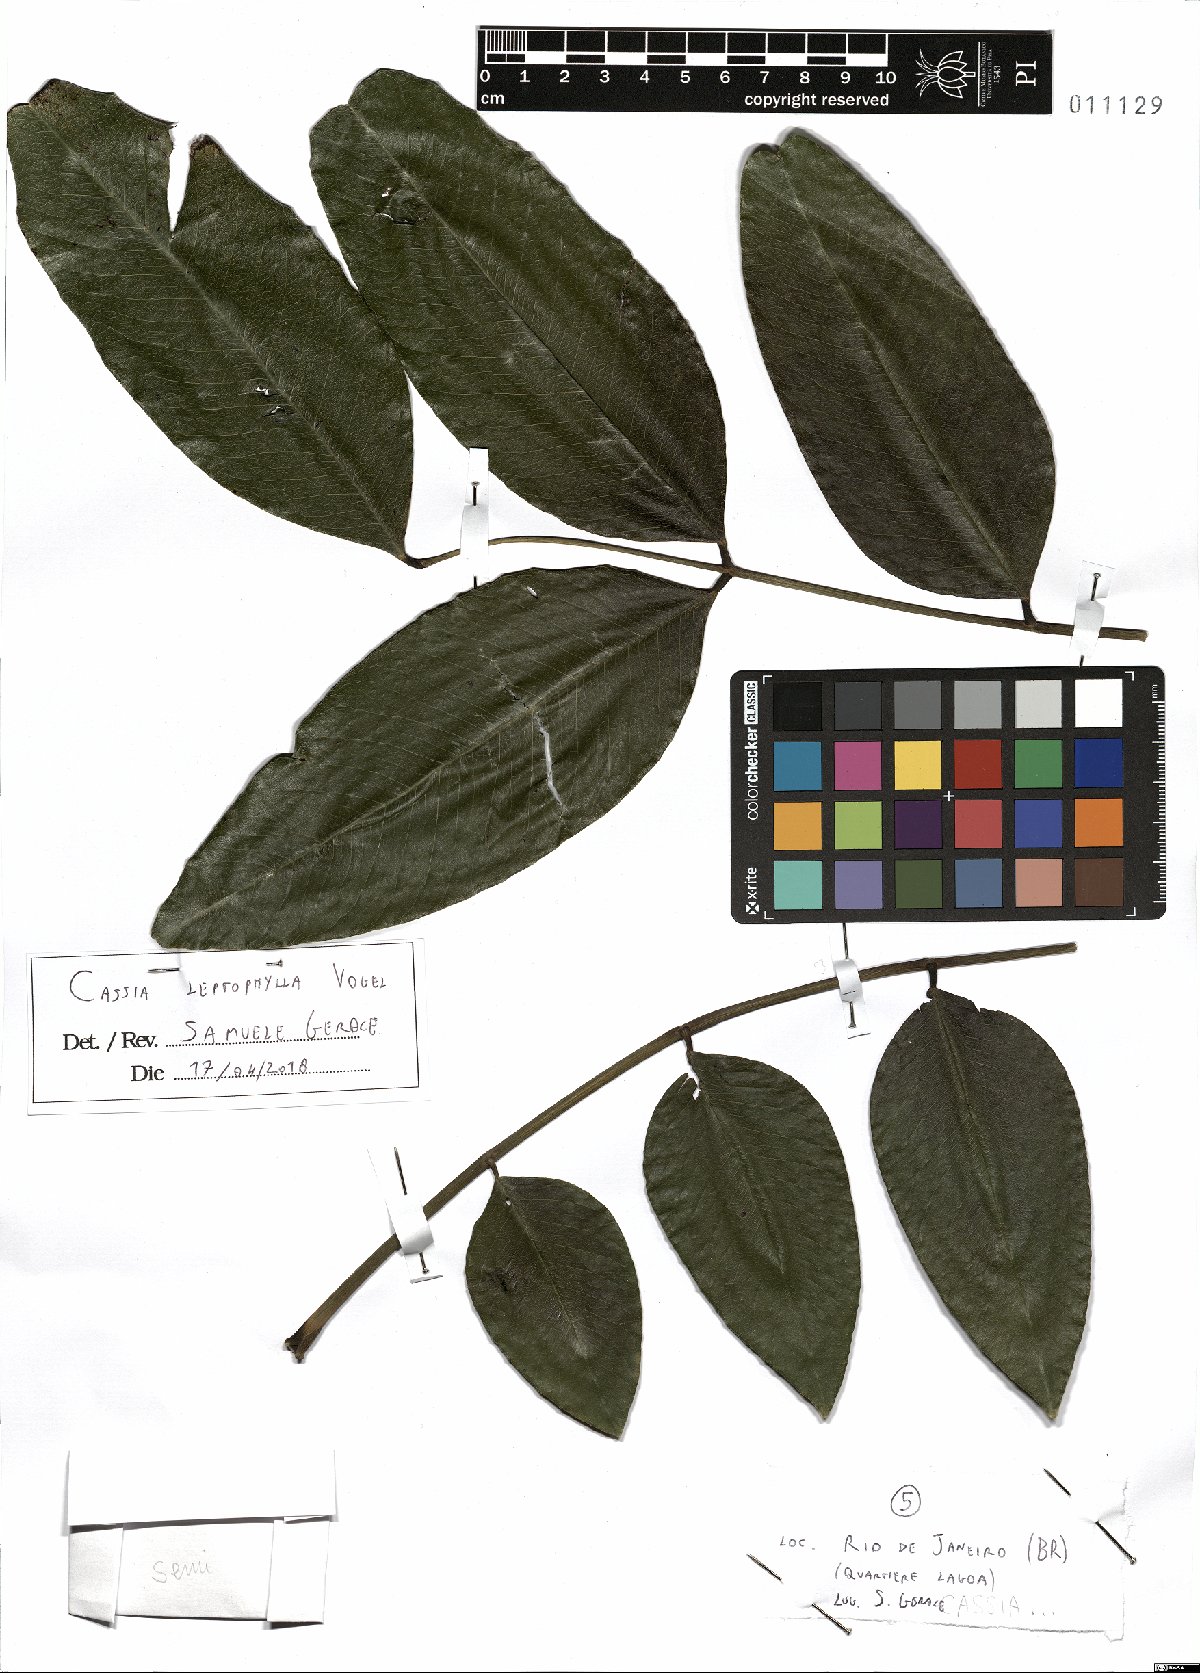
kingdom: Plantae
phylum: Tracheophyta
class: Magnoliopsida
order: Fabales
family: Fabaceae
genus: Cassia
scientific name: Cassia leptophylla
